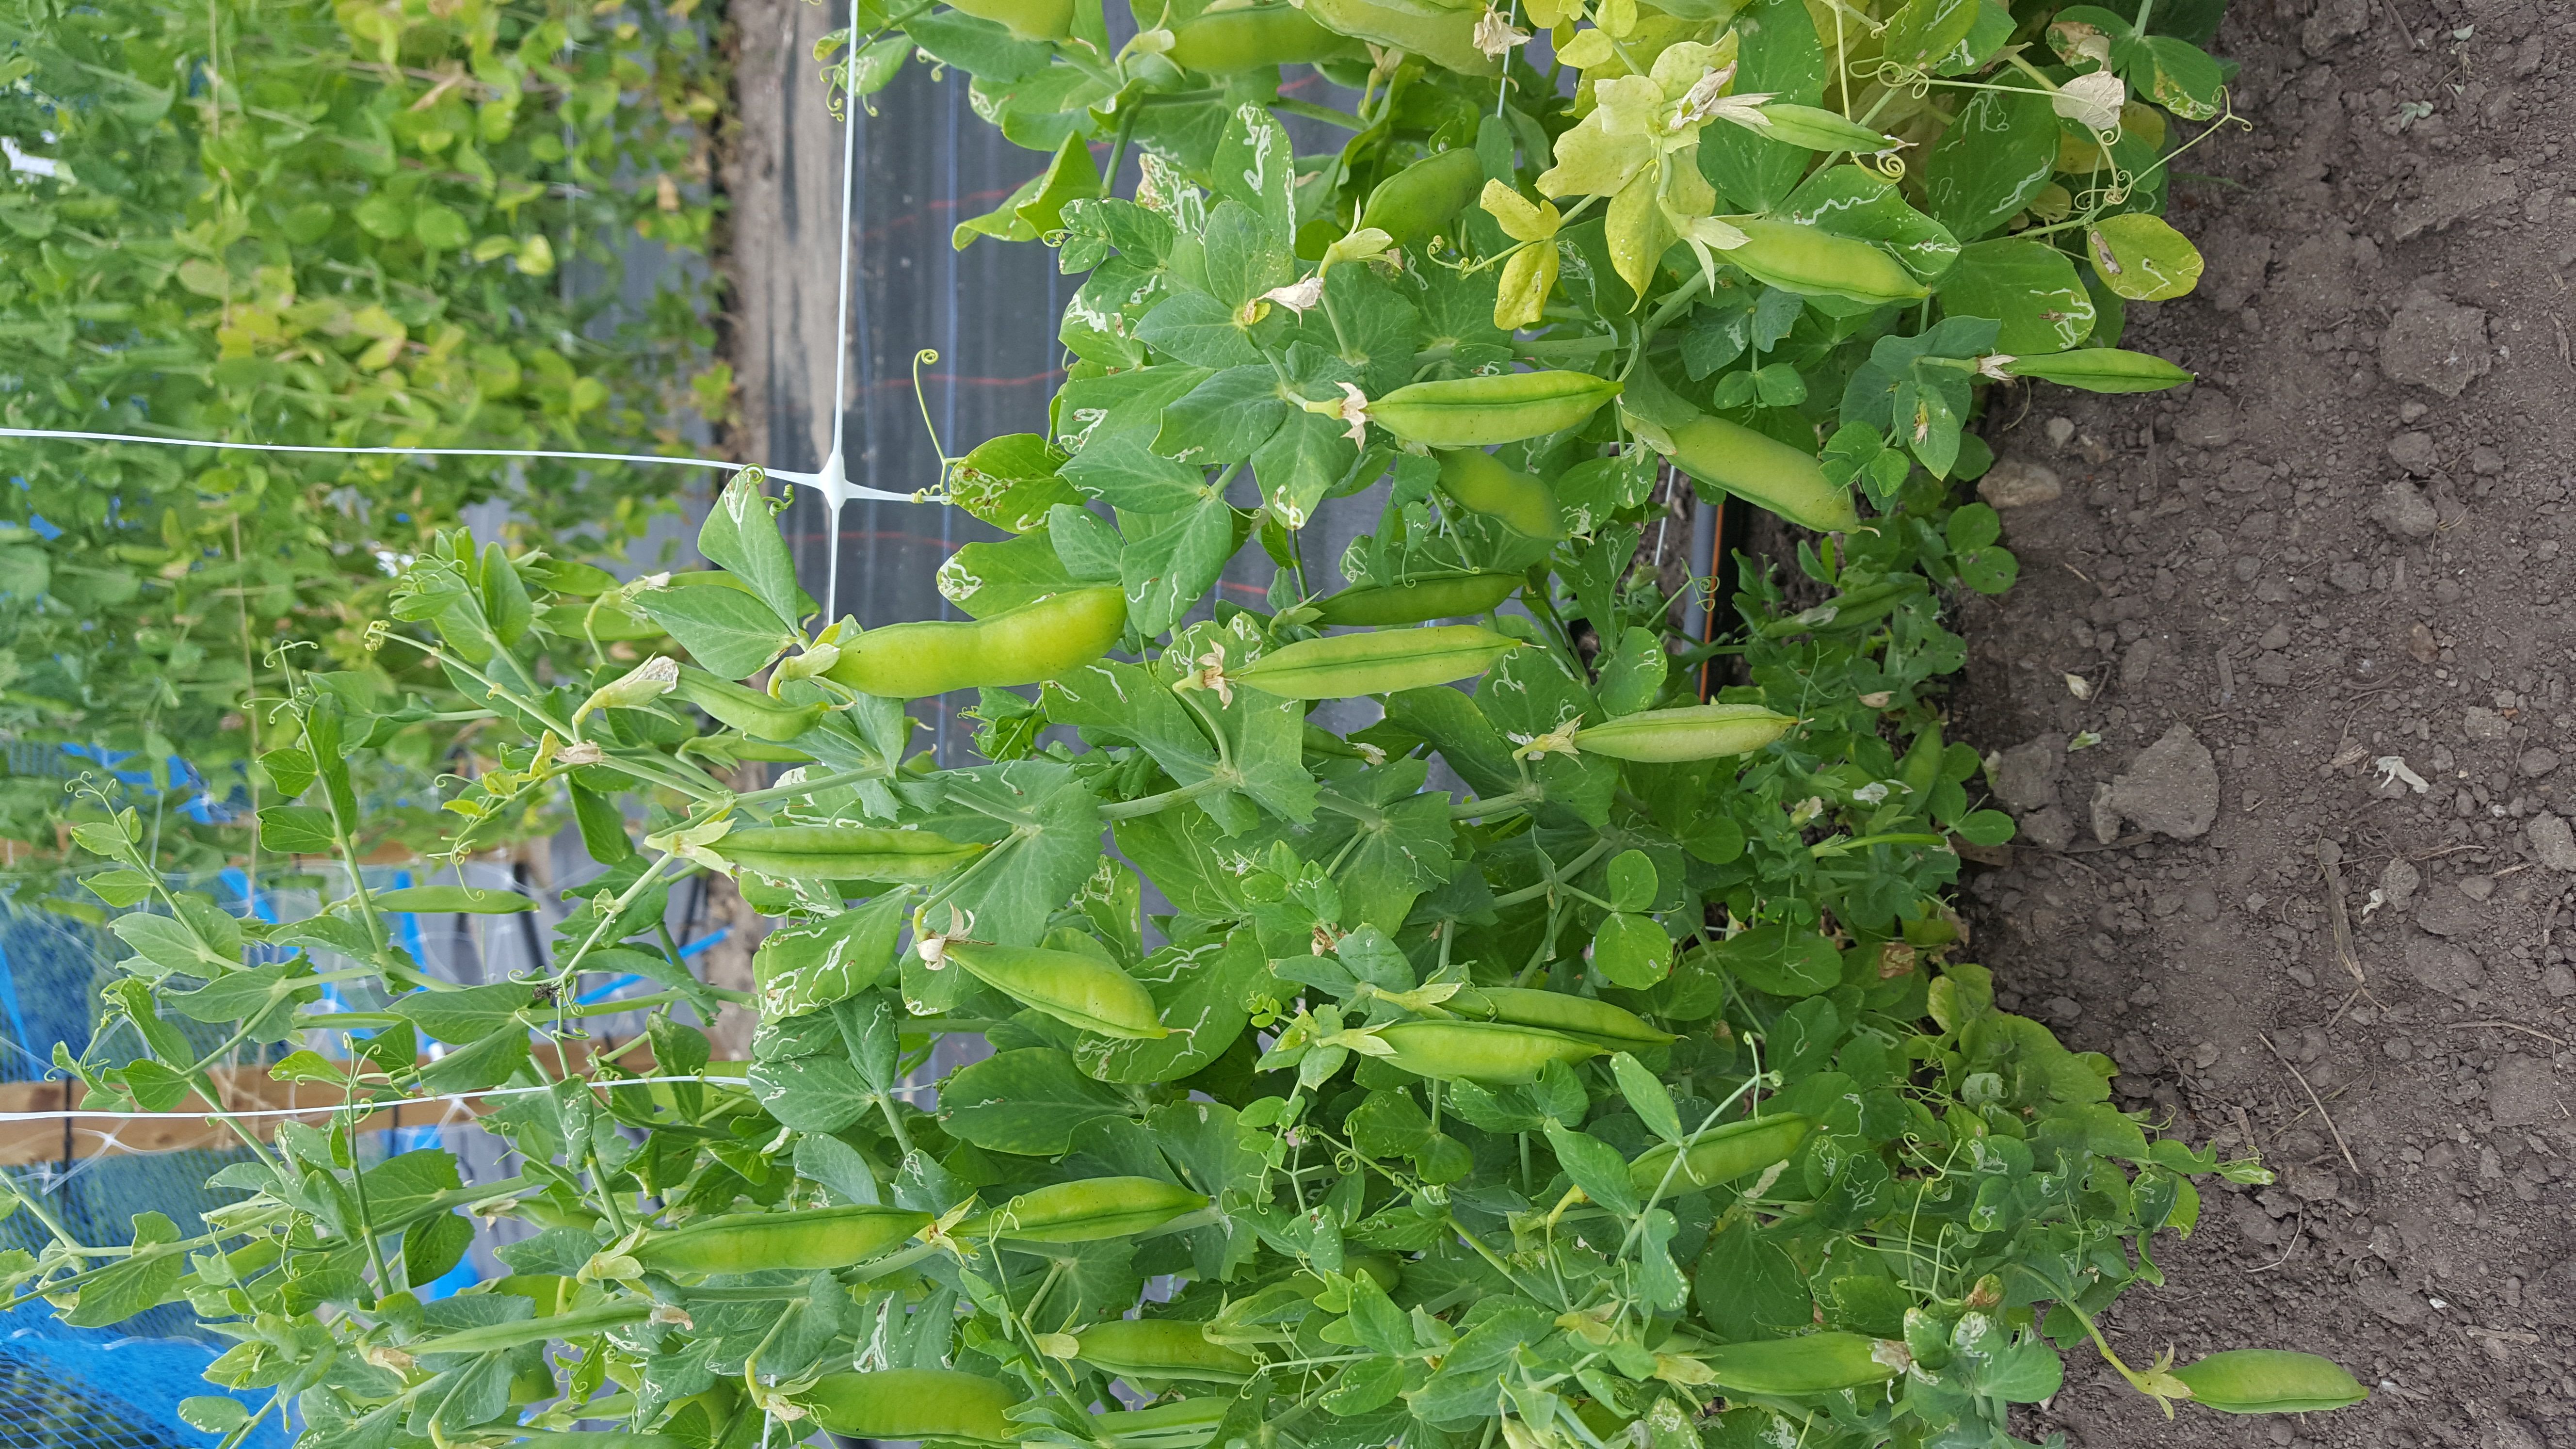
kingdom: Plantae
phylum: Tracheophyta
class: Magnoliopsida
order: Fabales
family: Fabaceae
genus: Lathyrus
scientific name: Lathyrus oleraceus
